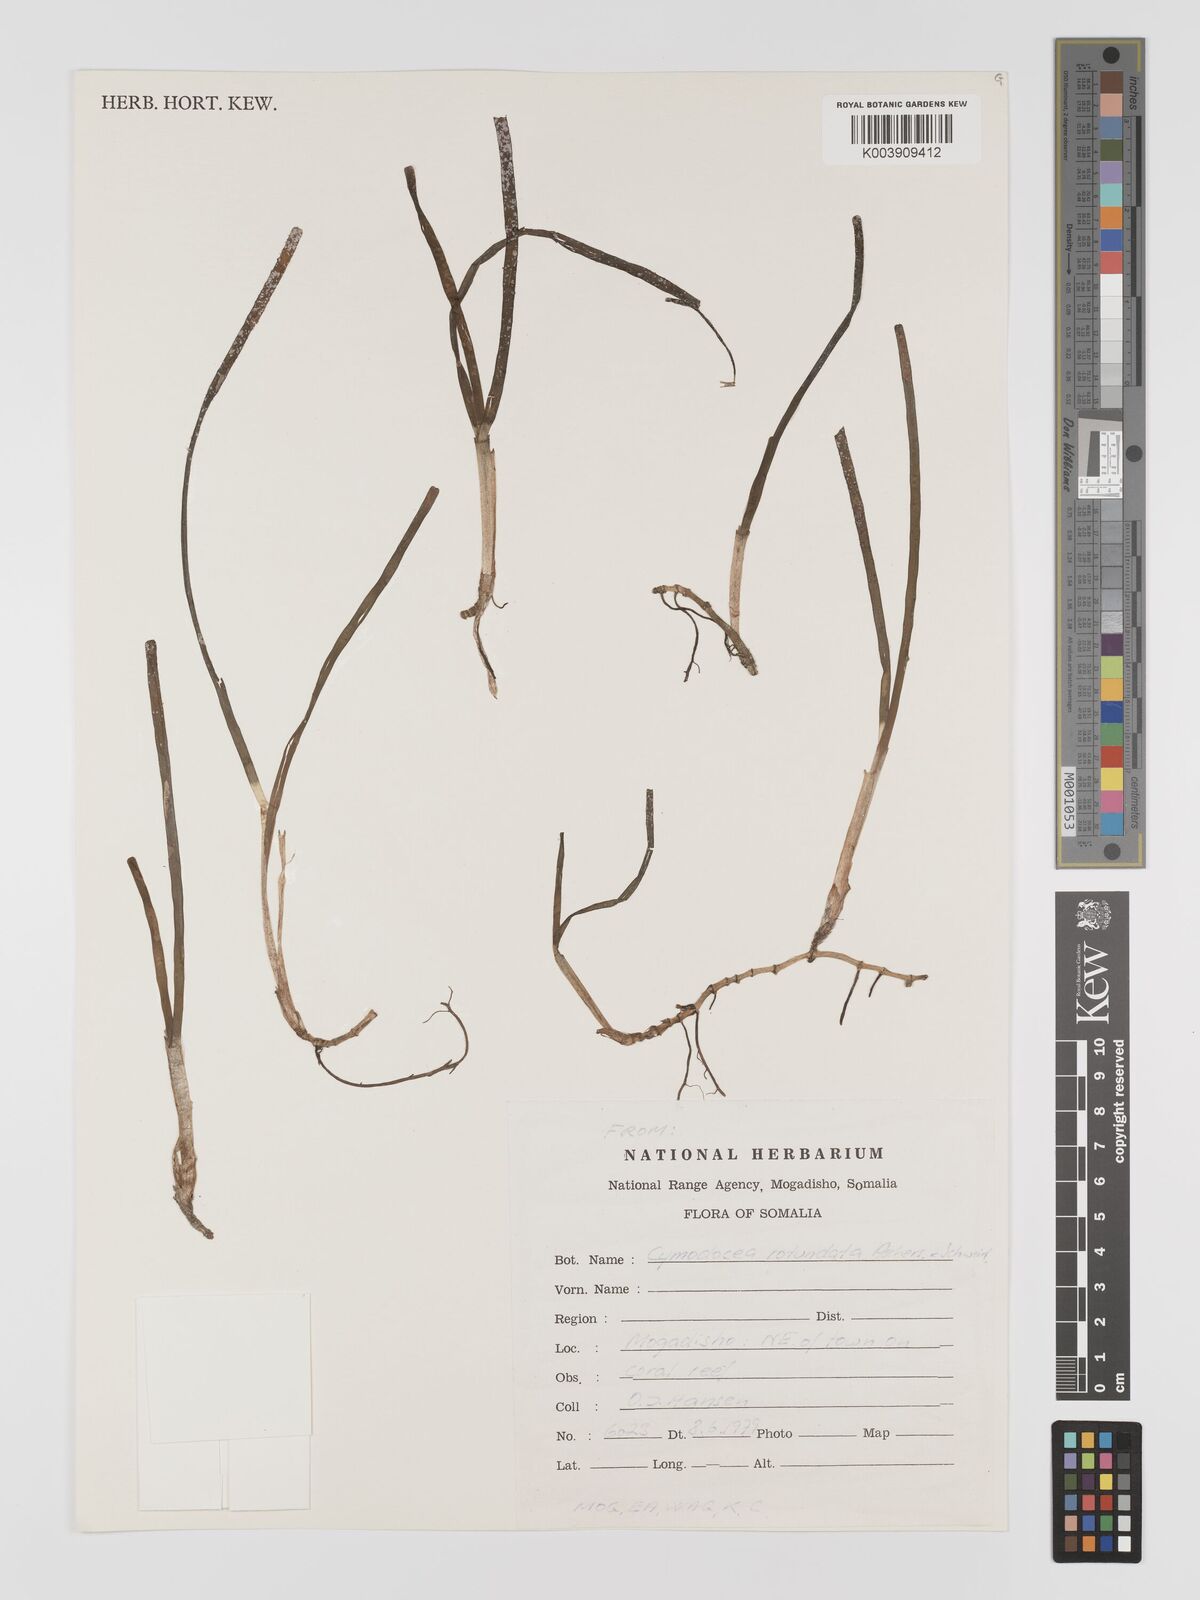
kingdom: Plantae
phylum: Tracheophyta
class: Liliopsida
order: Alismatales
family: Cymodoceaceae
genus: Cymodocea
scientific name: Cymodocea rotundata
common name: Species code: cr
